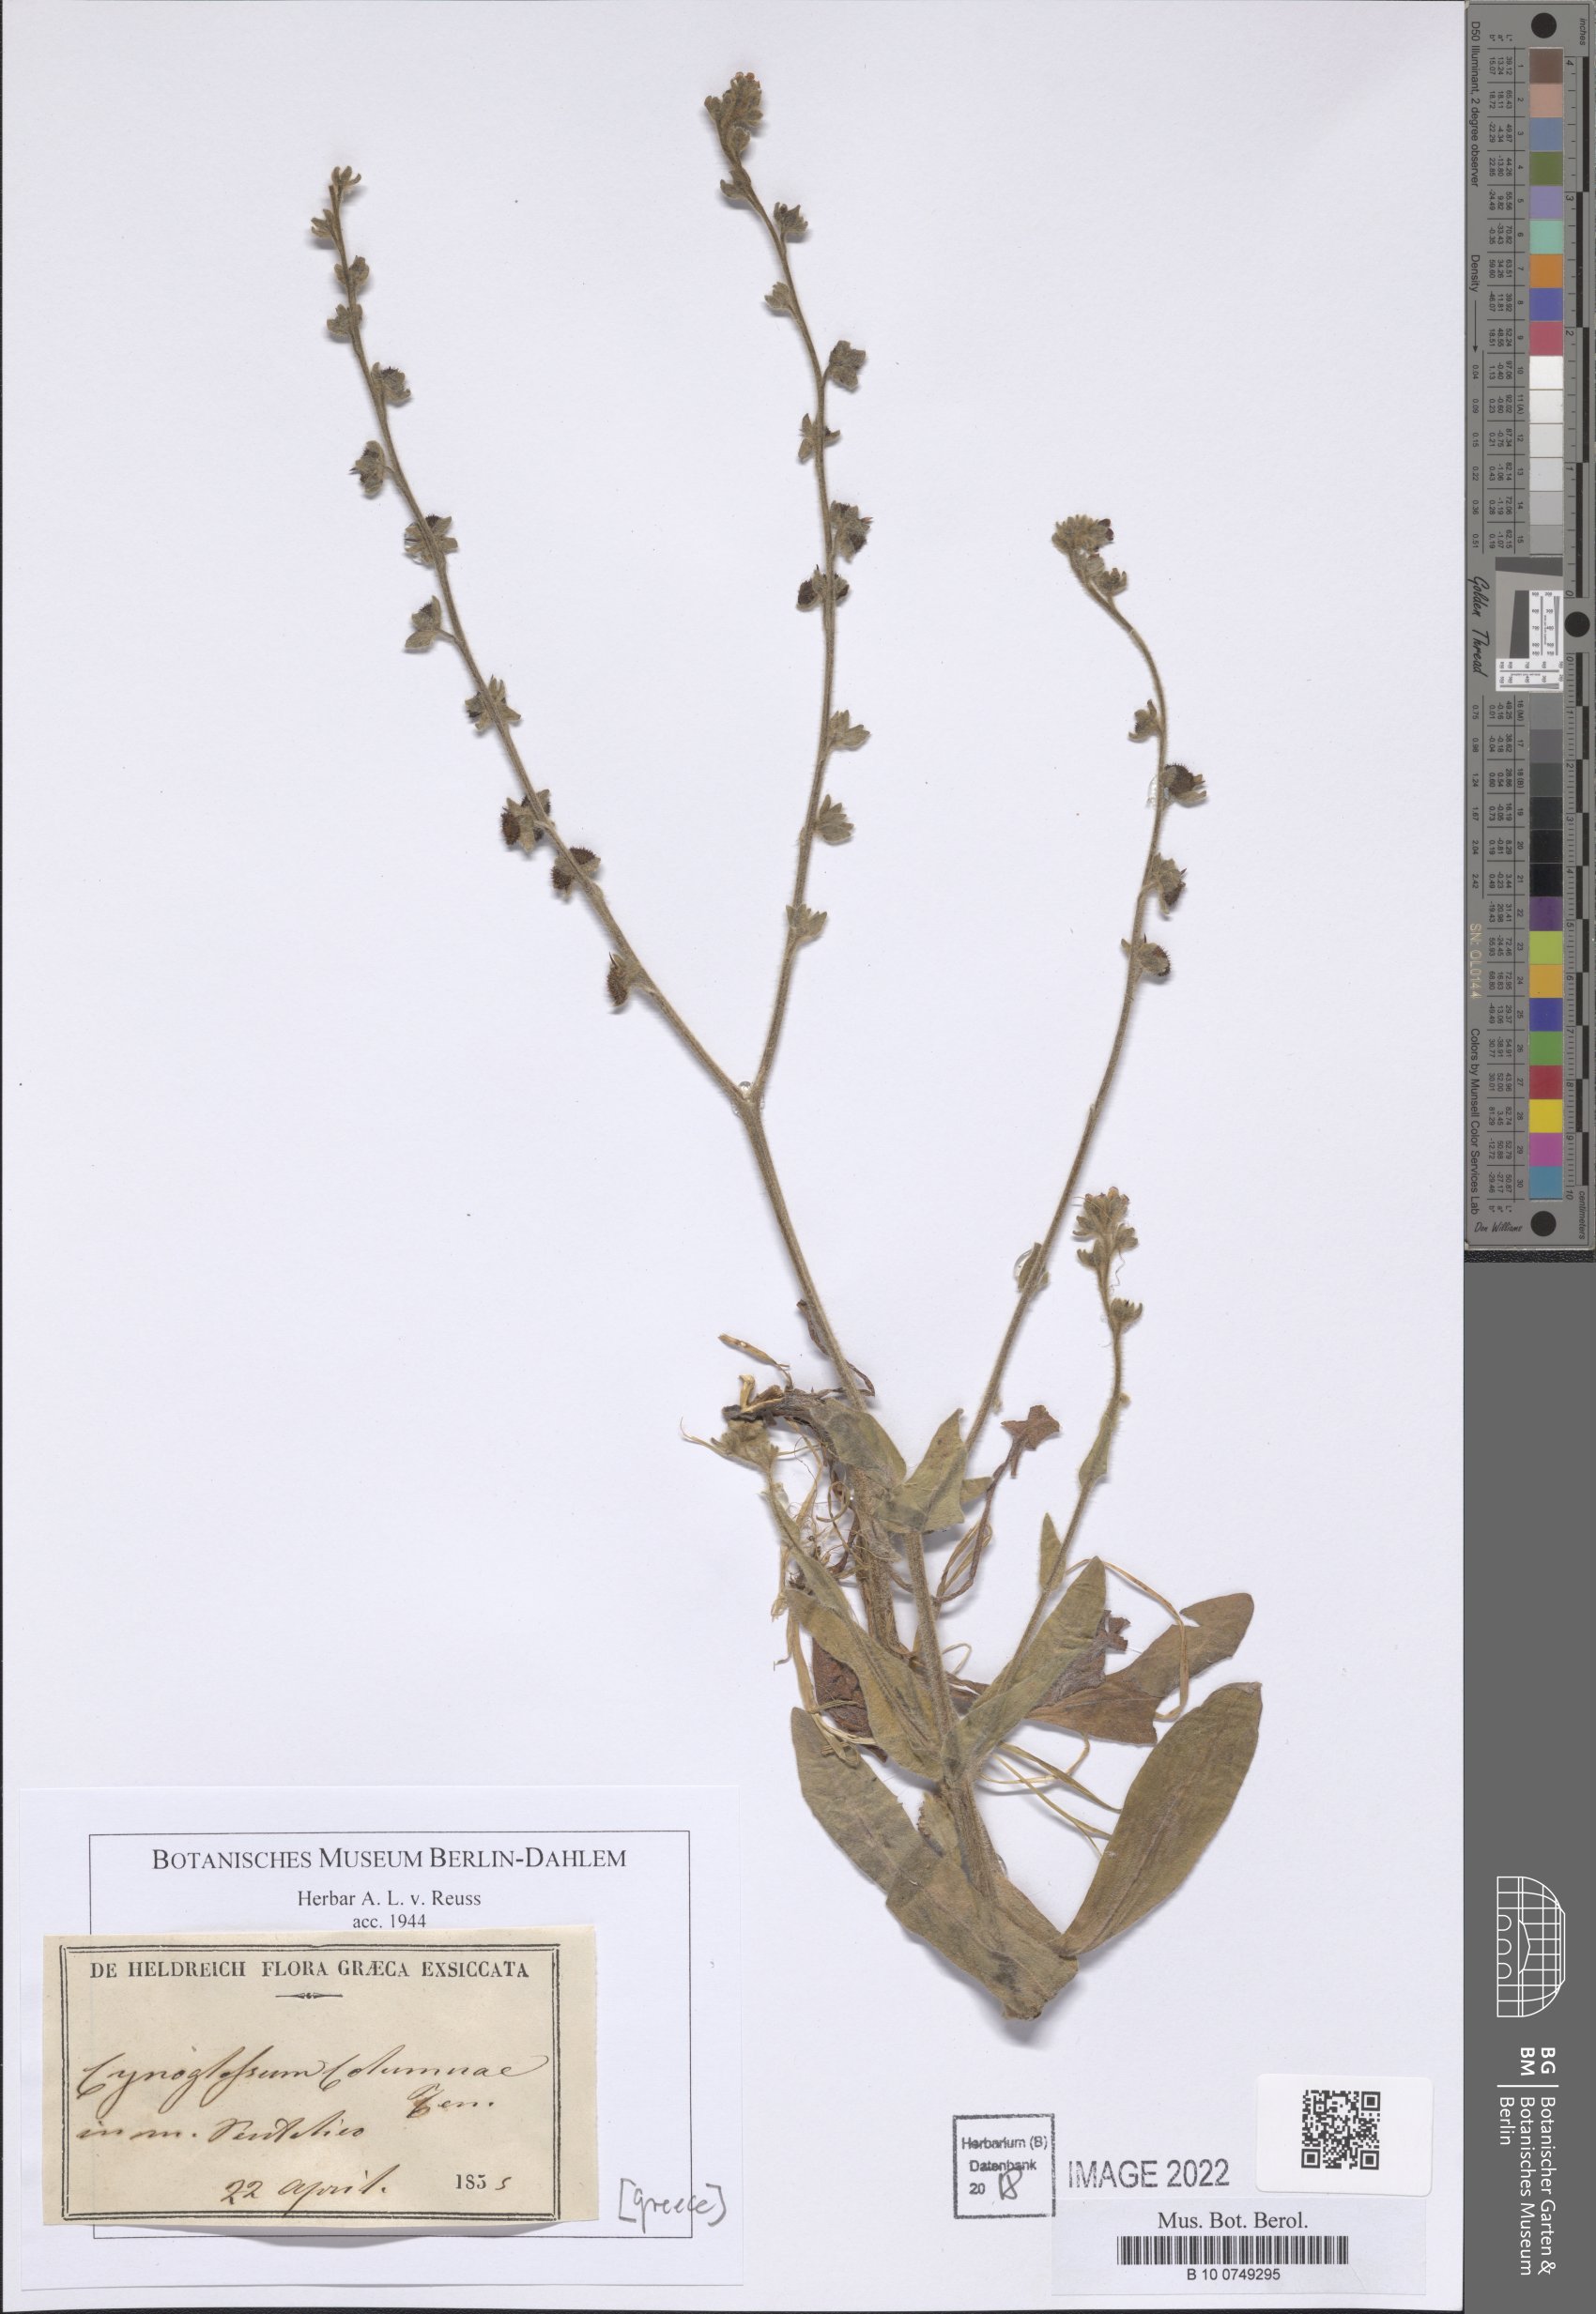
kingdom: Plantae
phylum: Tracheophyta
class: Magnoliopsida
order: Boraginales
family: Boraginaceae
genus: Rindera
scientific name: Rindera columnae
